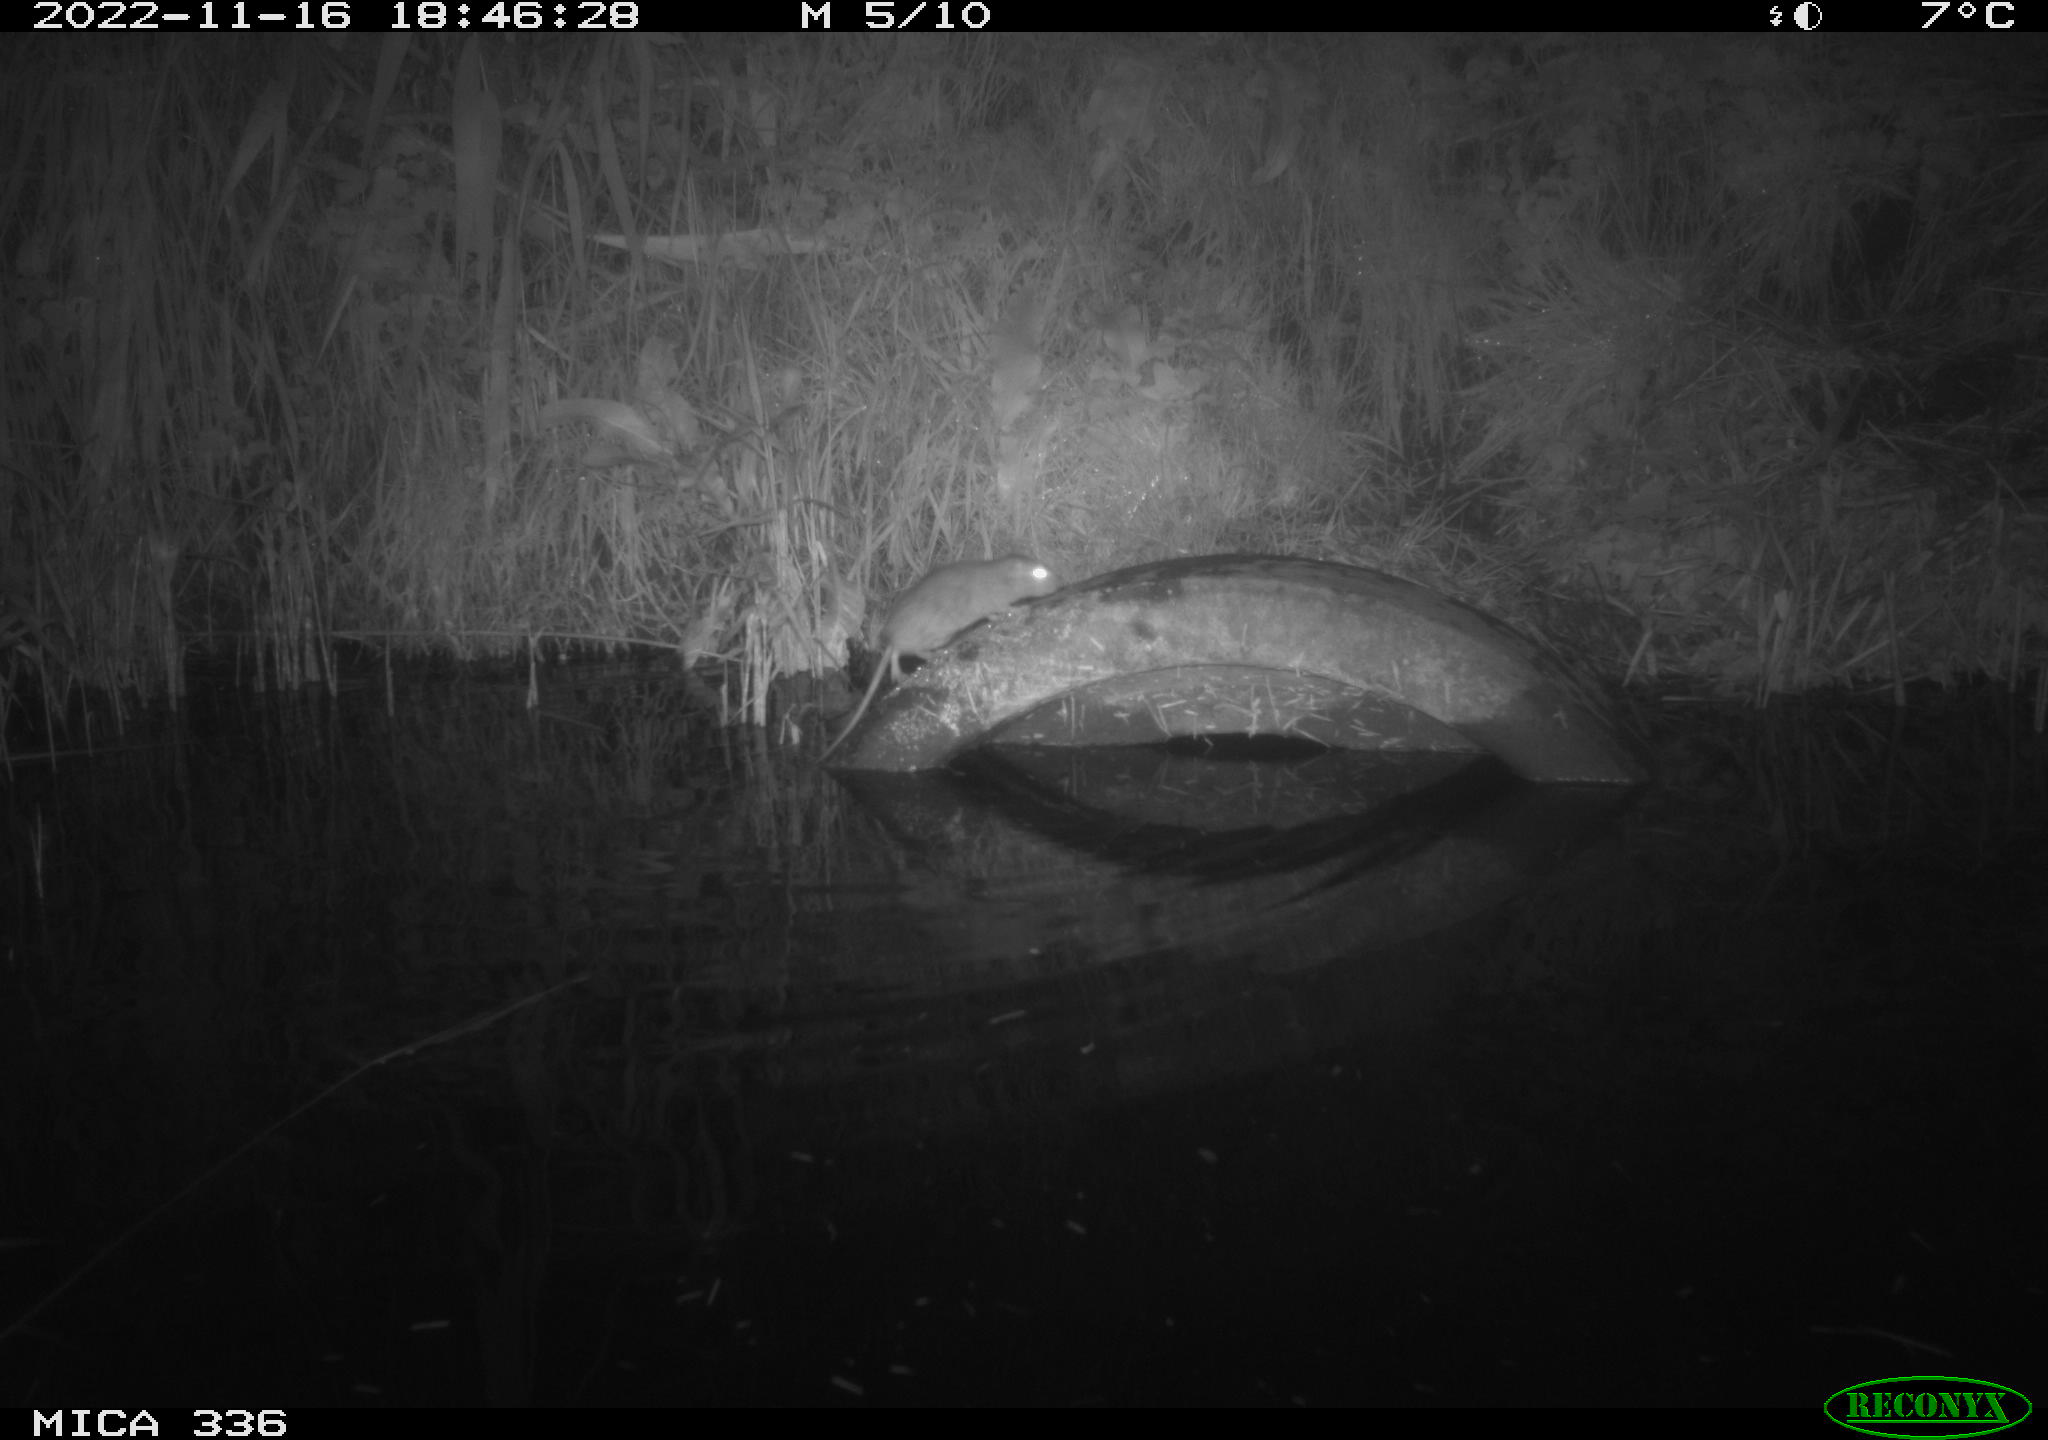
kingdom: Animalia
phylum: Chordata
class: Mammalia
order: Rodentia
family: Muridae
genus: Rattus
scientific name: Rattus norvegicus
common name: Brown rat
